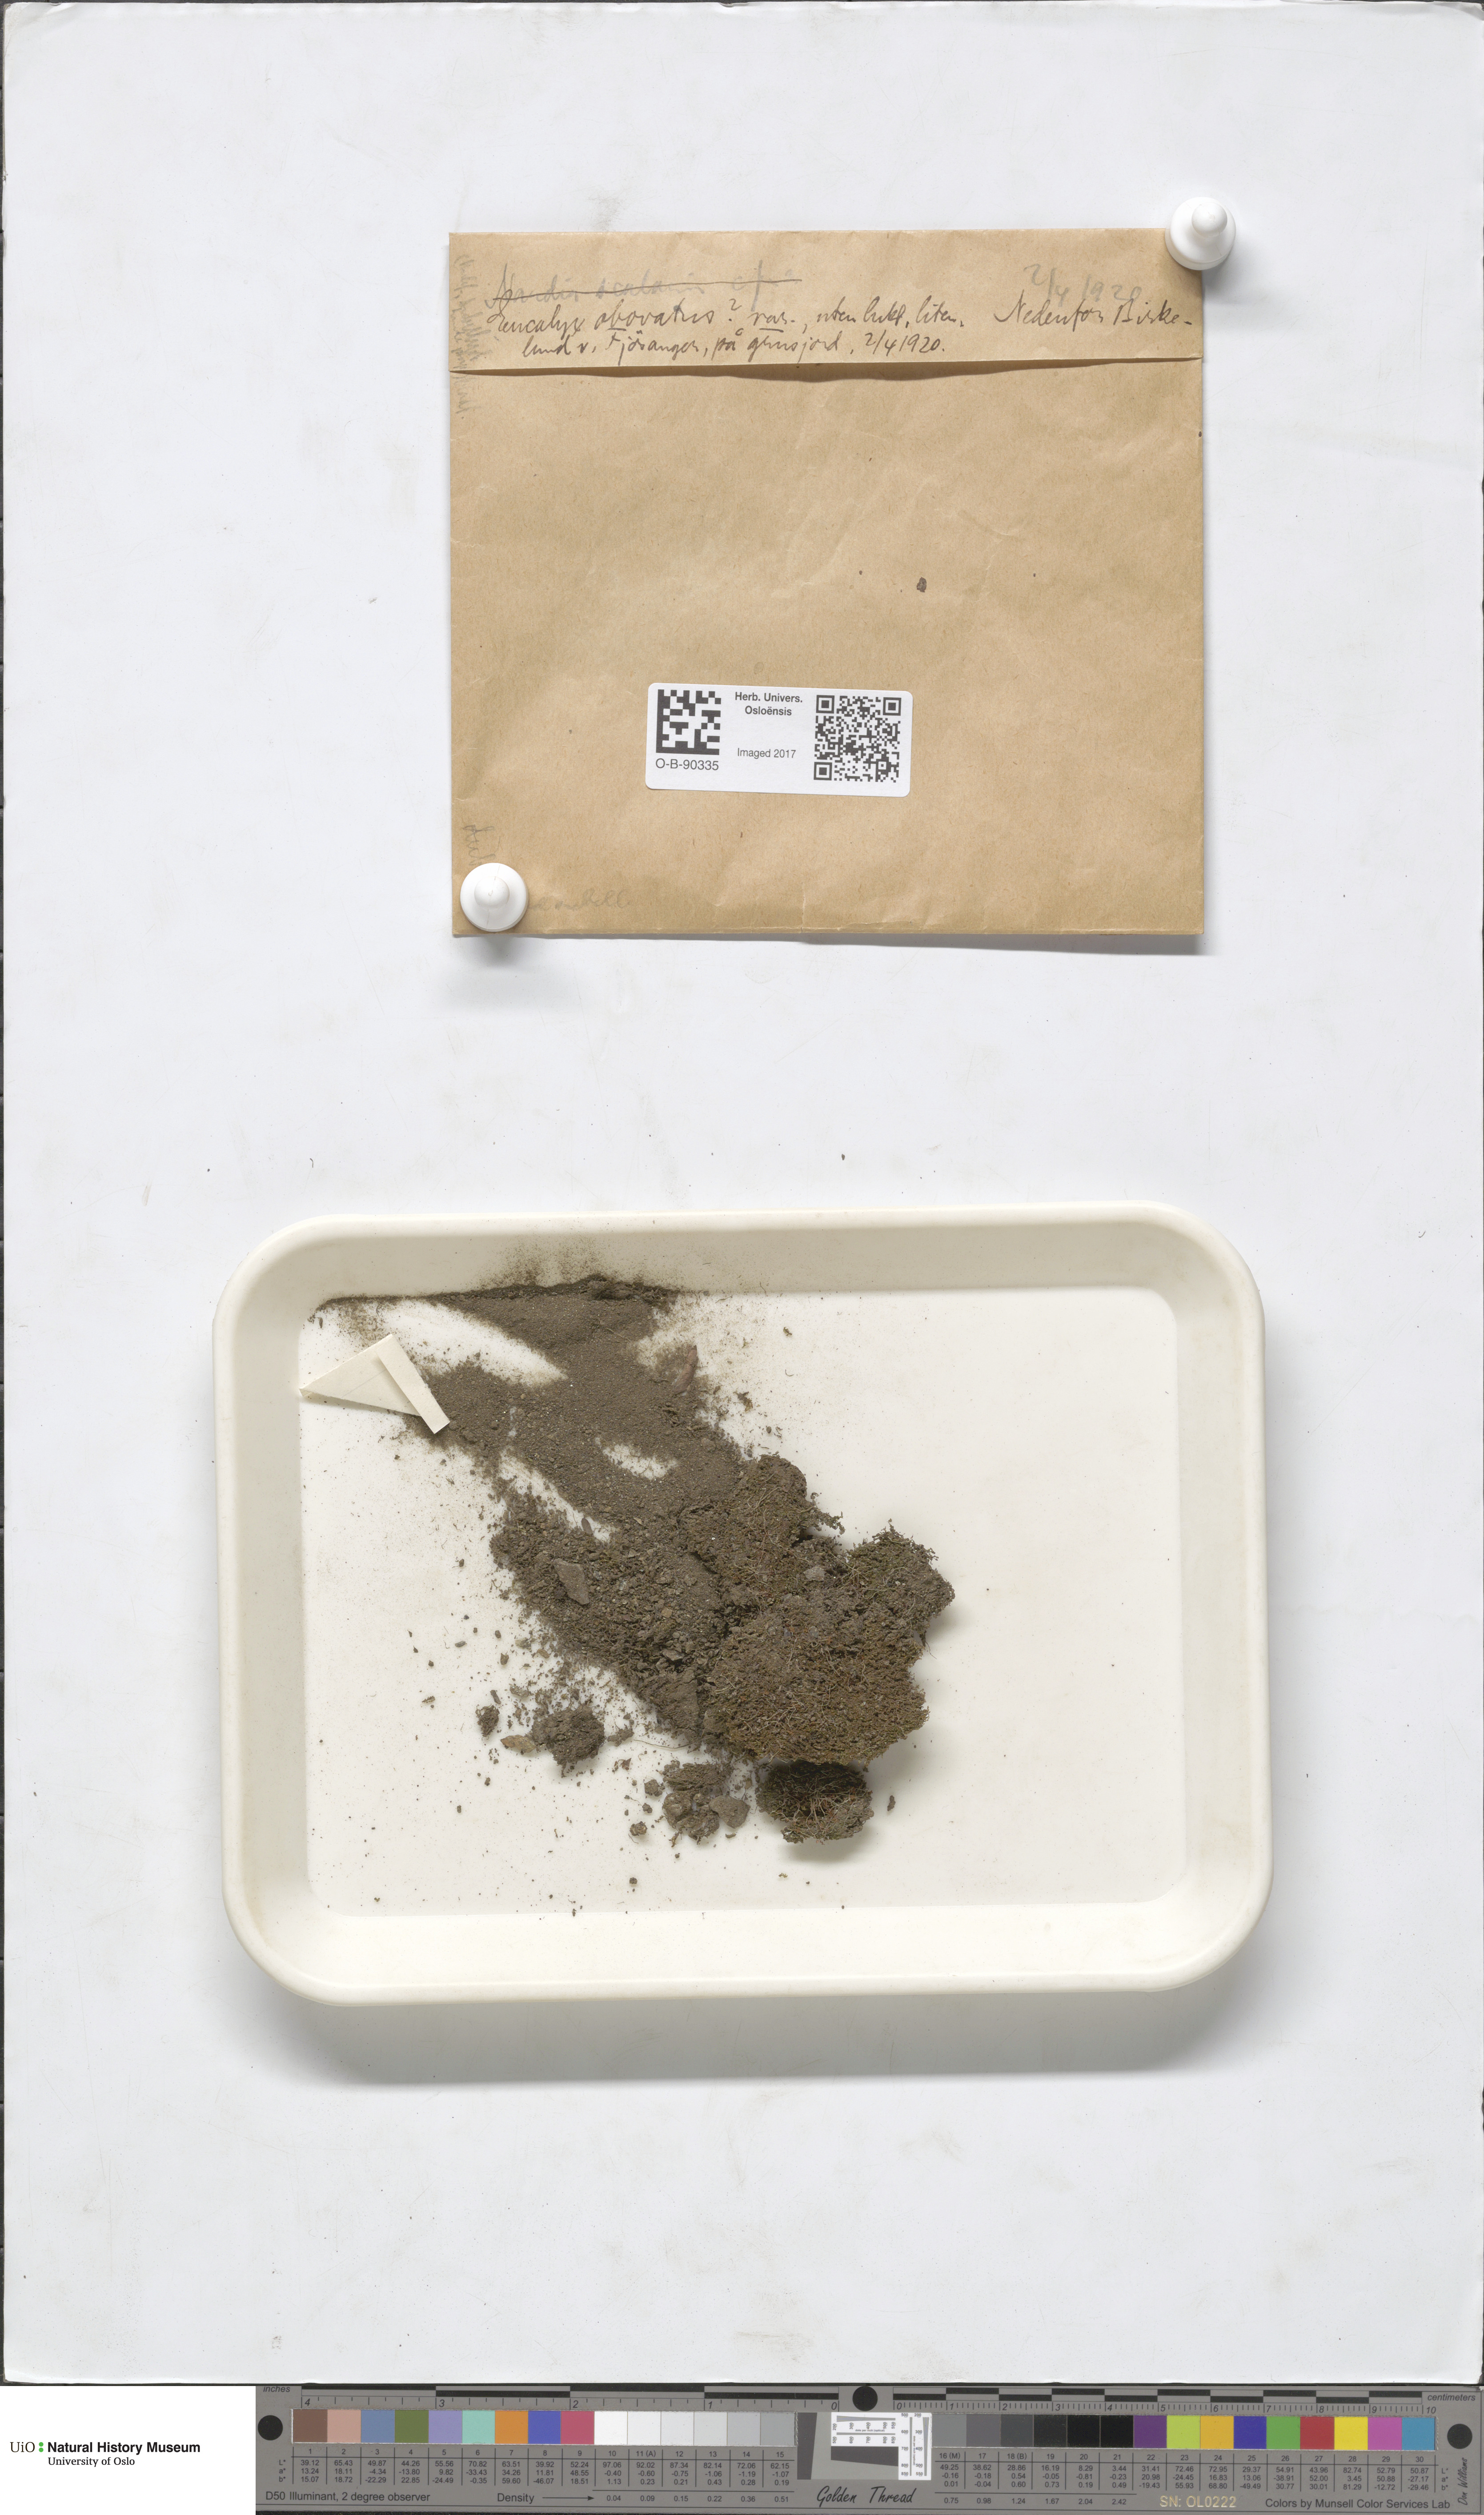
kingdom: Plantae
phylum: Marchantiophyta
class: Jungermanniopsida
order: Jungermanniales
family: Solenostomataceae
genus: Solenostoma
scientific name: Solenostoma obovatum
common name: Egg flapwort
